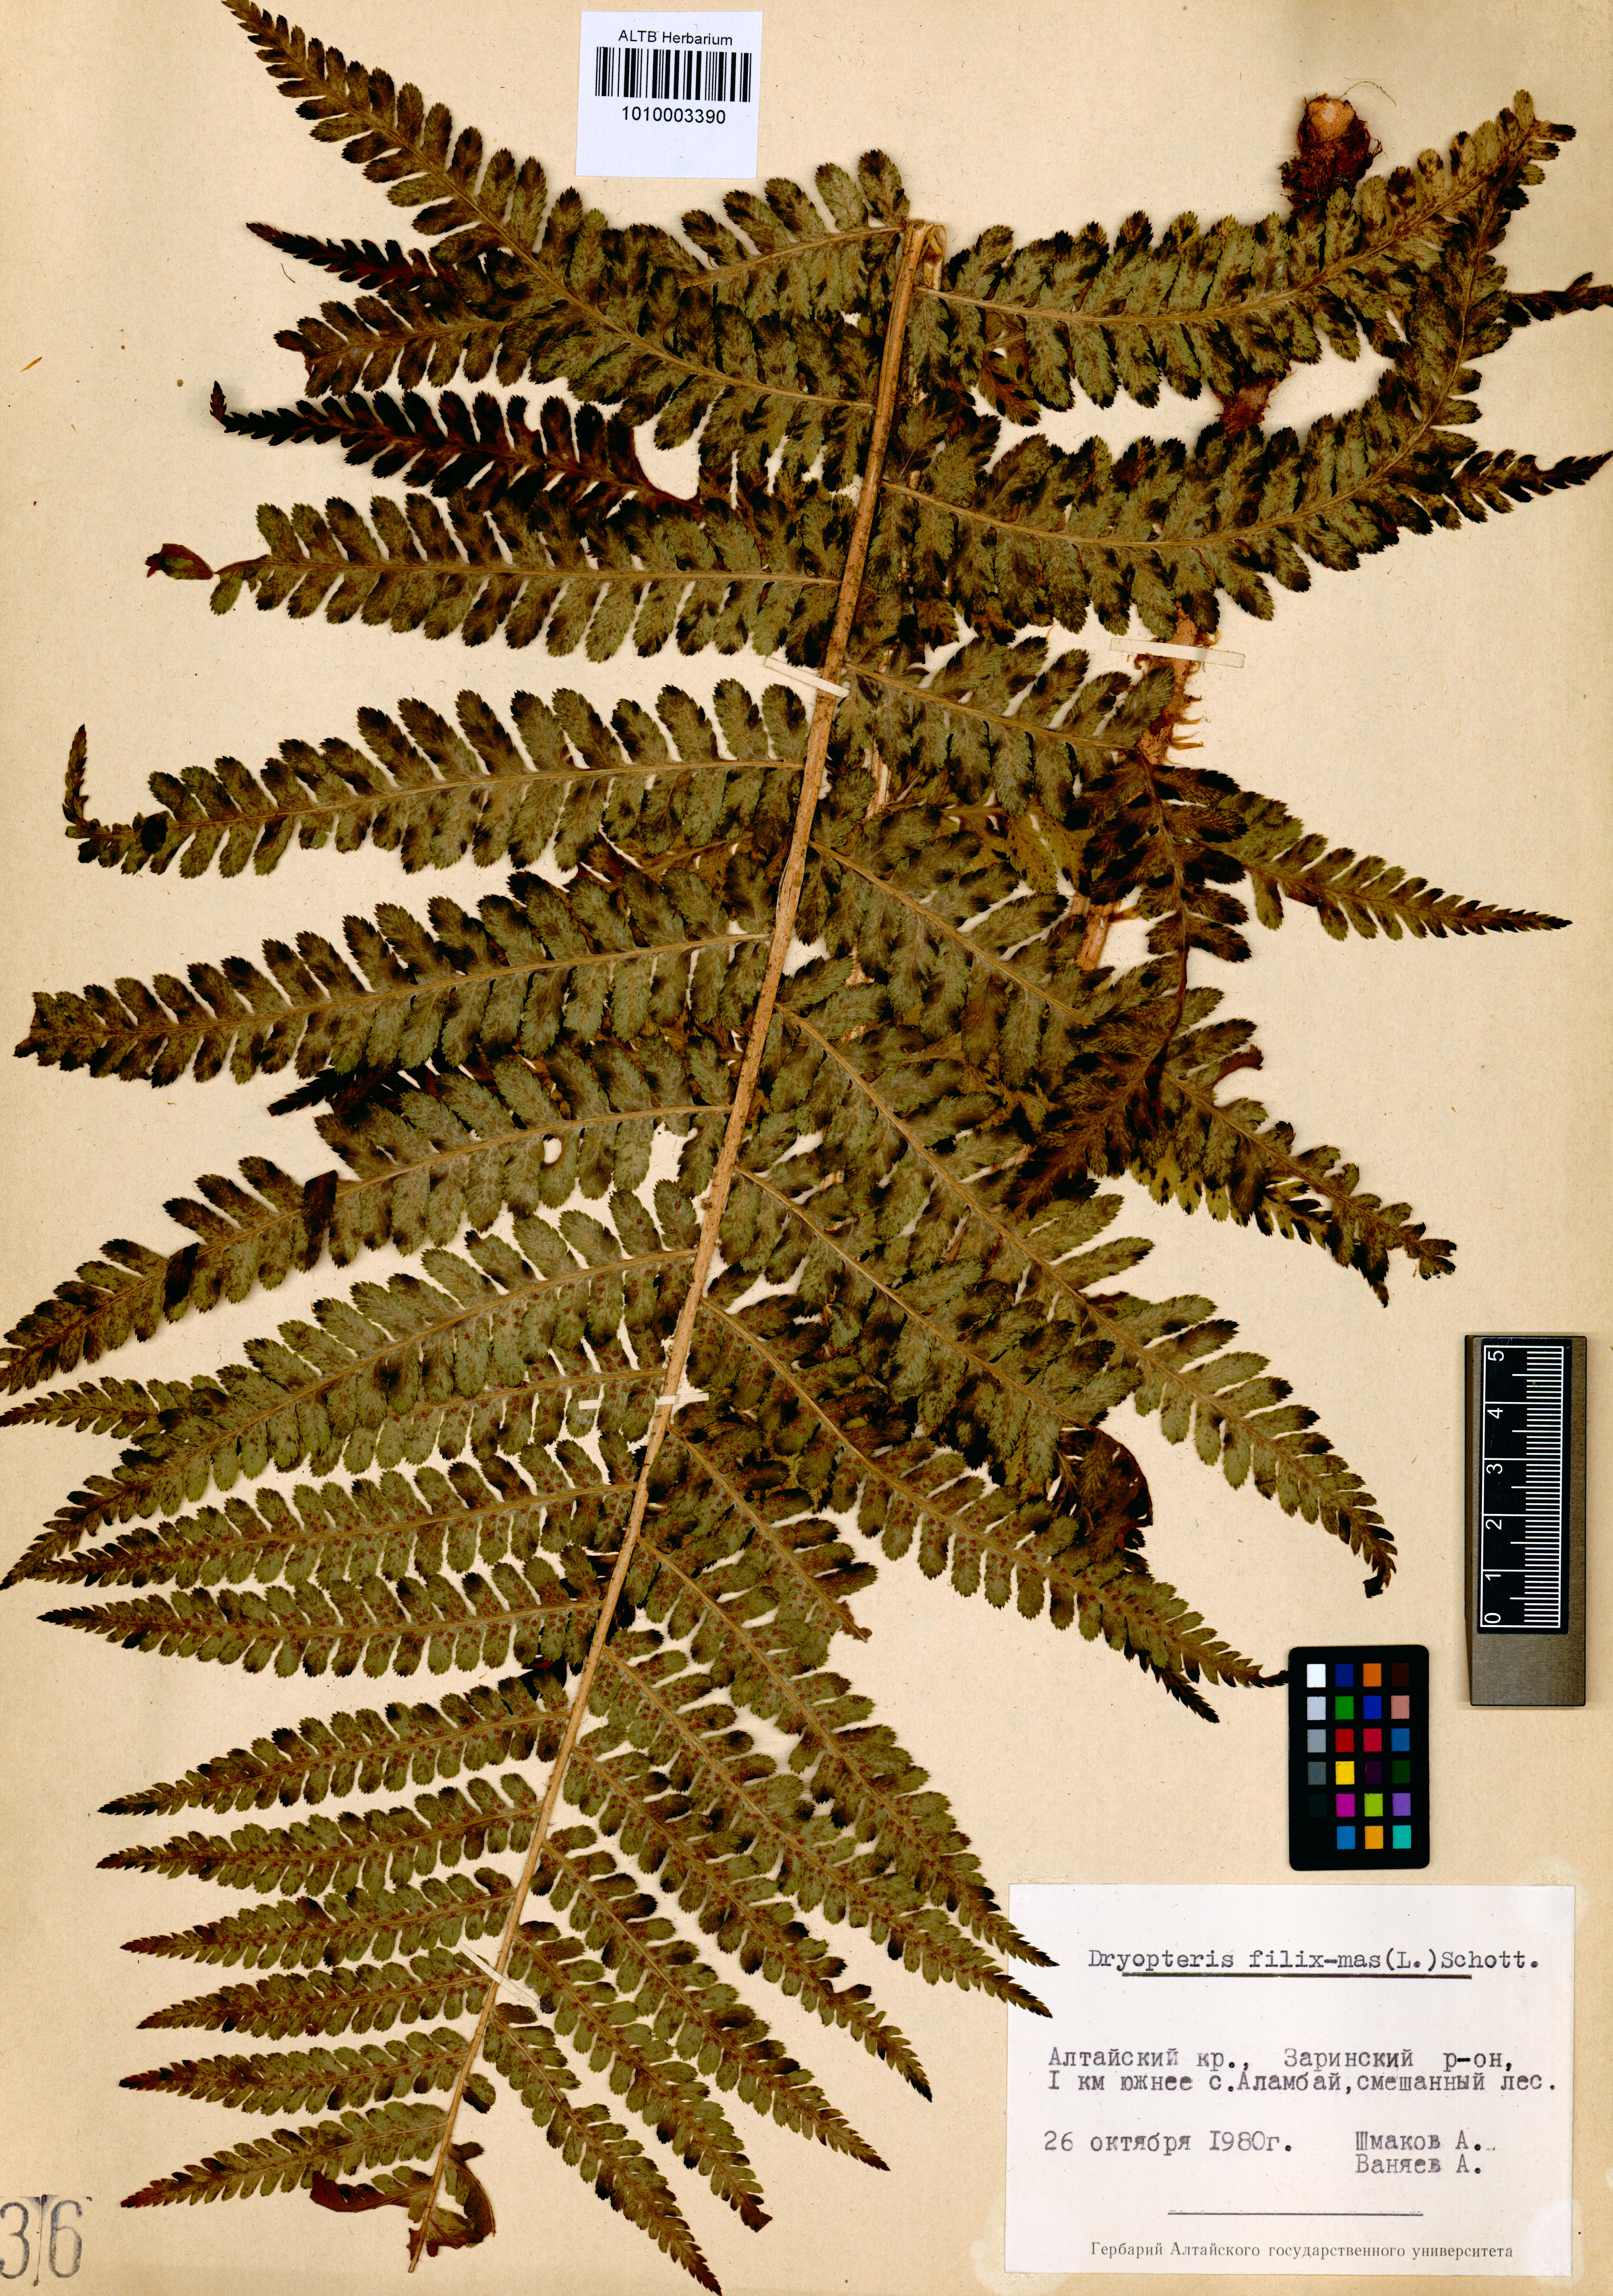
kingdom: Plantae
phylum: Tracheophyta
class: Polypodiopsida
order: Polypodiales
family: Dryopteridaceae
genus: Dryopteris
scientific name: Dryopteris filix-mas
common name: Male fern
